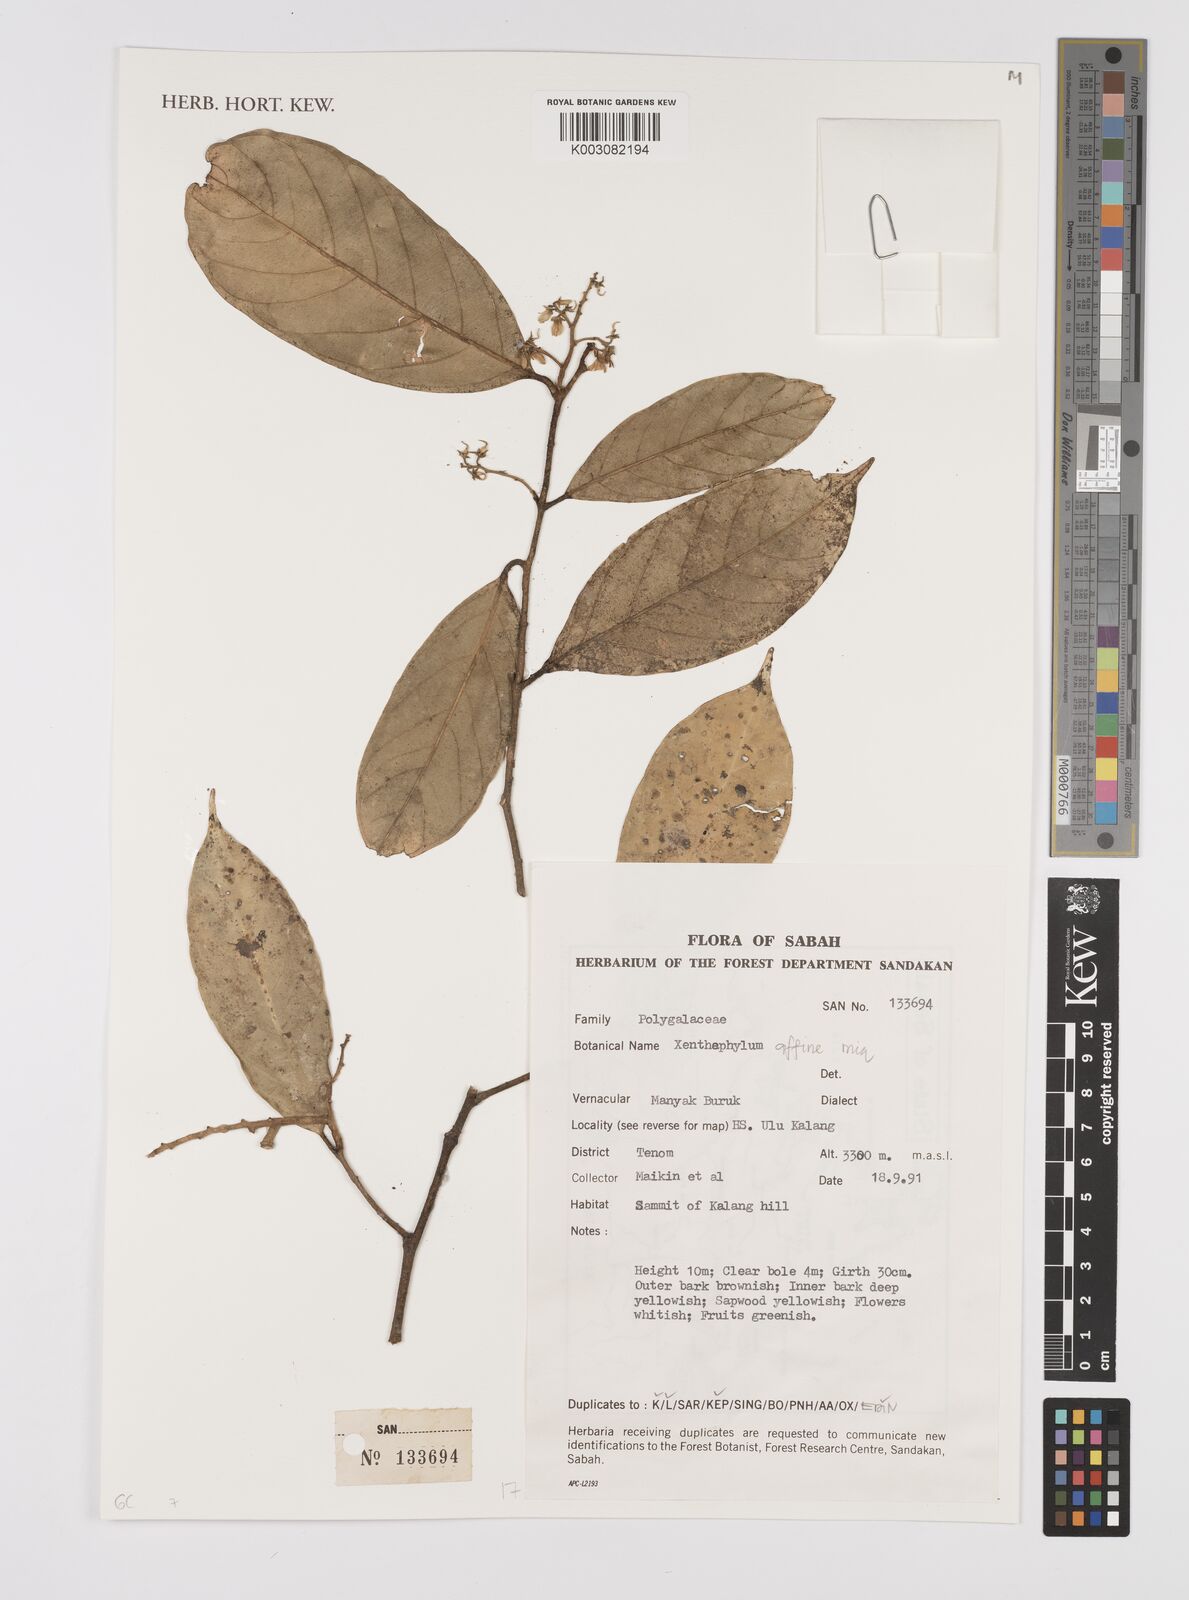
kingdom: Plantae
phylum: Tracheophyta
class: Magnoliopsida
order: Fabales
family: Polygalaceae
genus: Xanthophyllum
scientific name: Xanthophyllum flavescens
